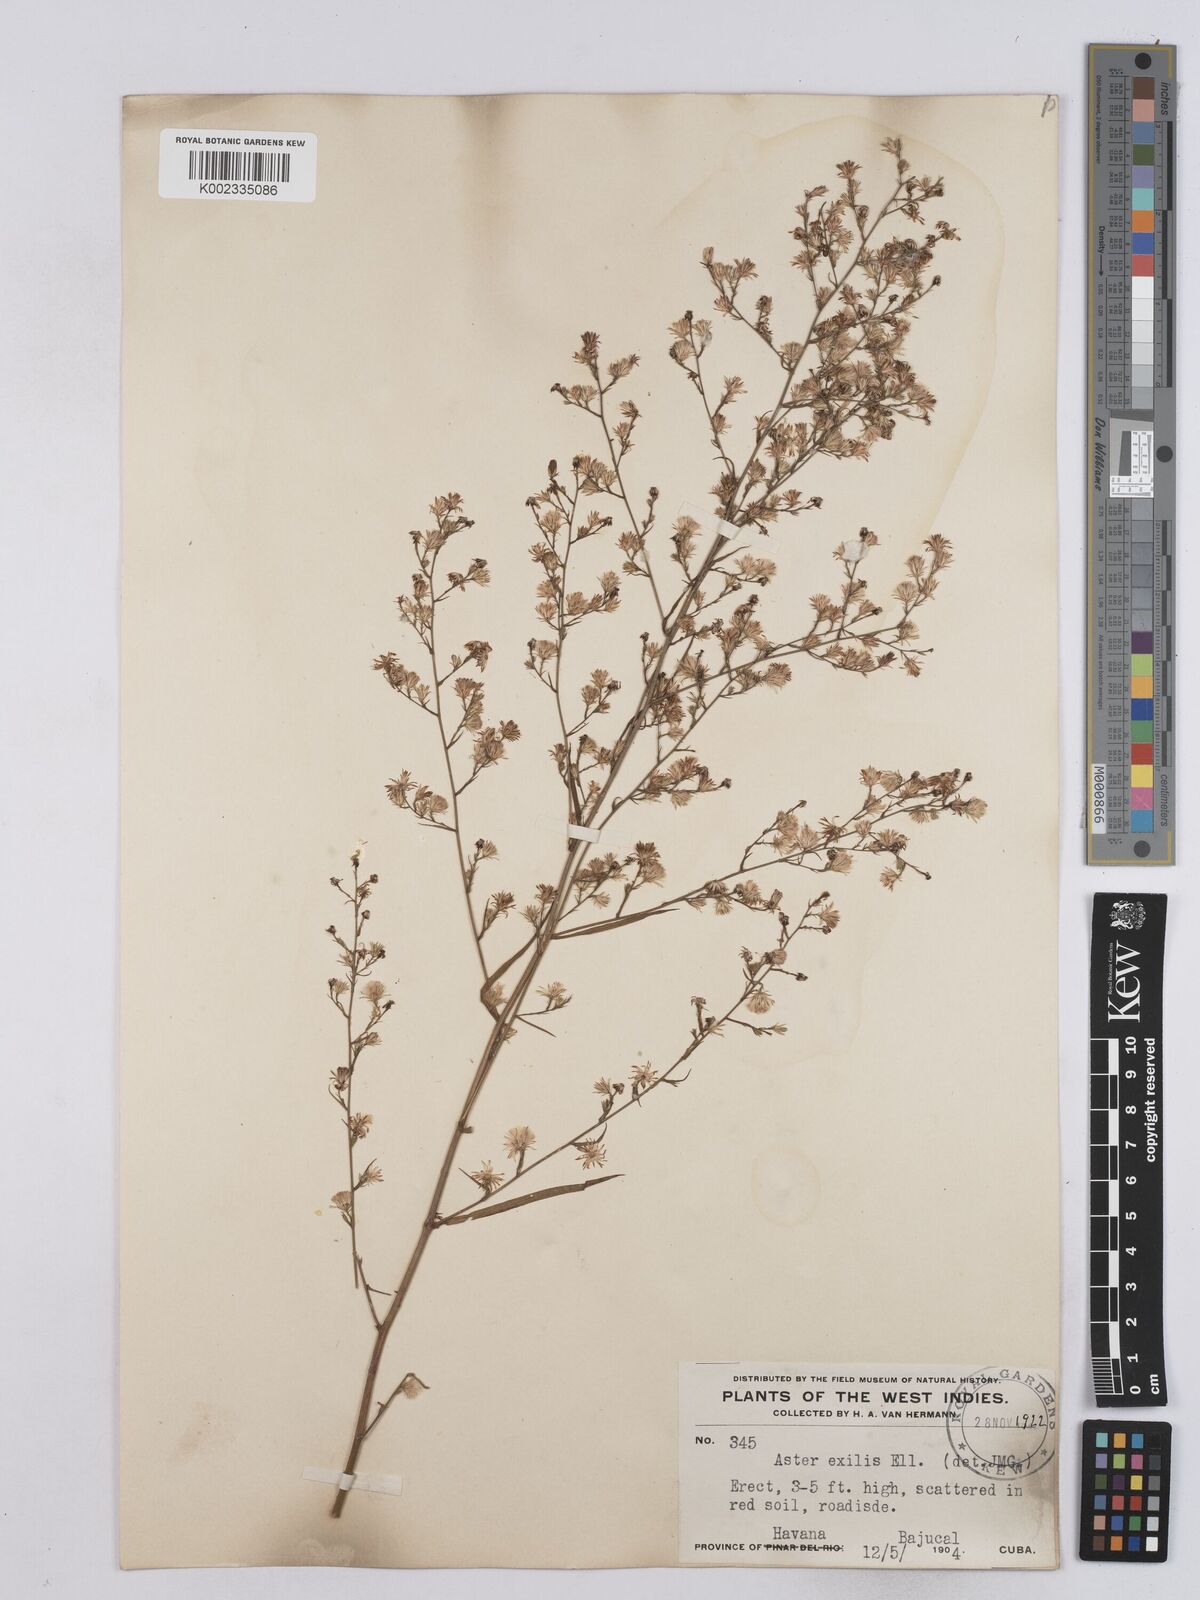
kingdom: Plantae
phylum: Tracheophyta
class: Magnoliopsida
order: Asterales
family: Asteraceae
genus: Symphyotrichum
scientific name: Symphyotrichum expansum
